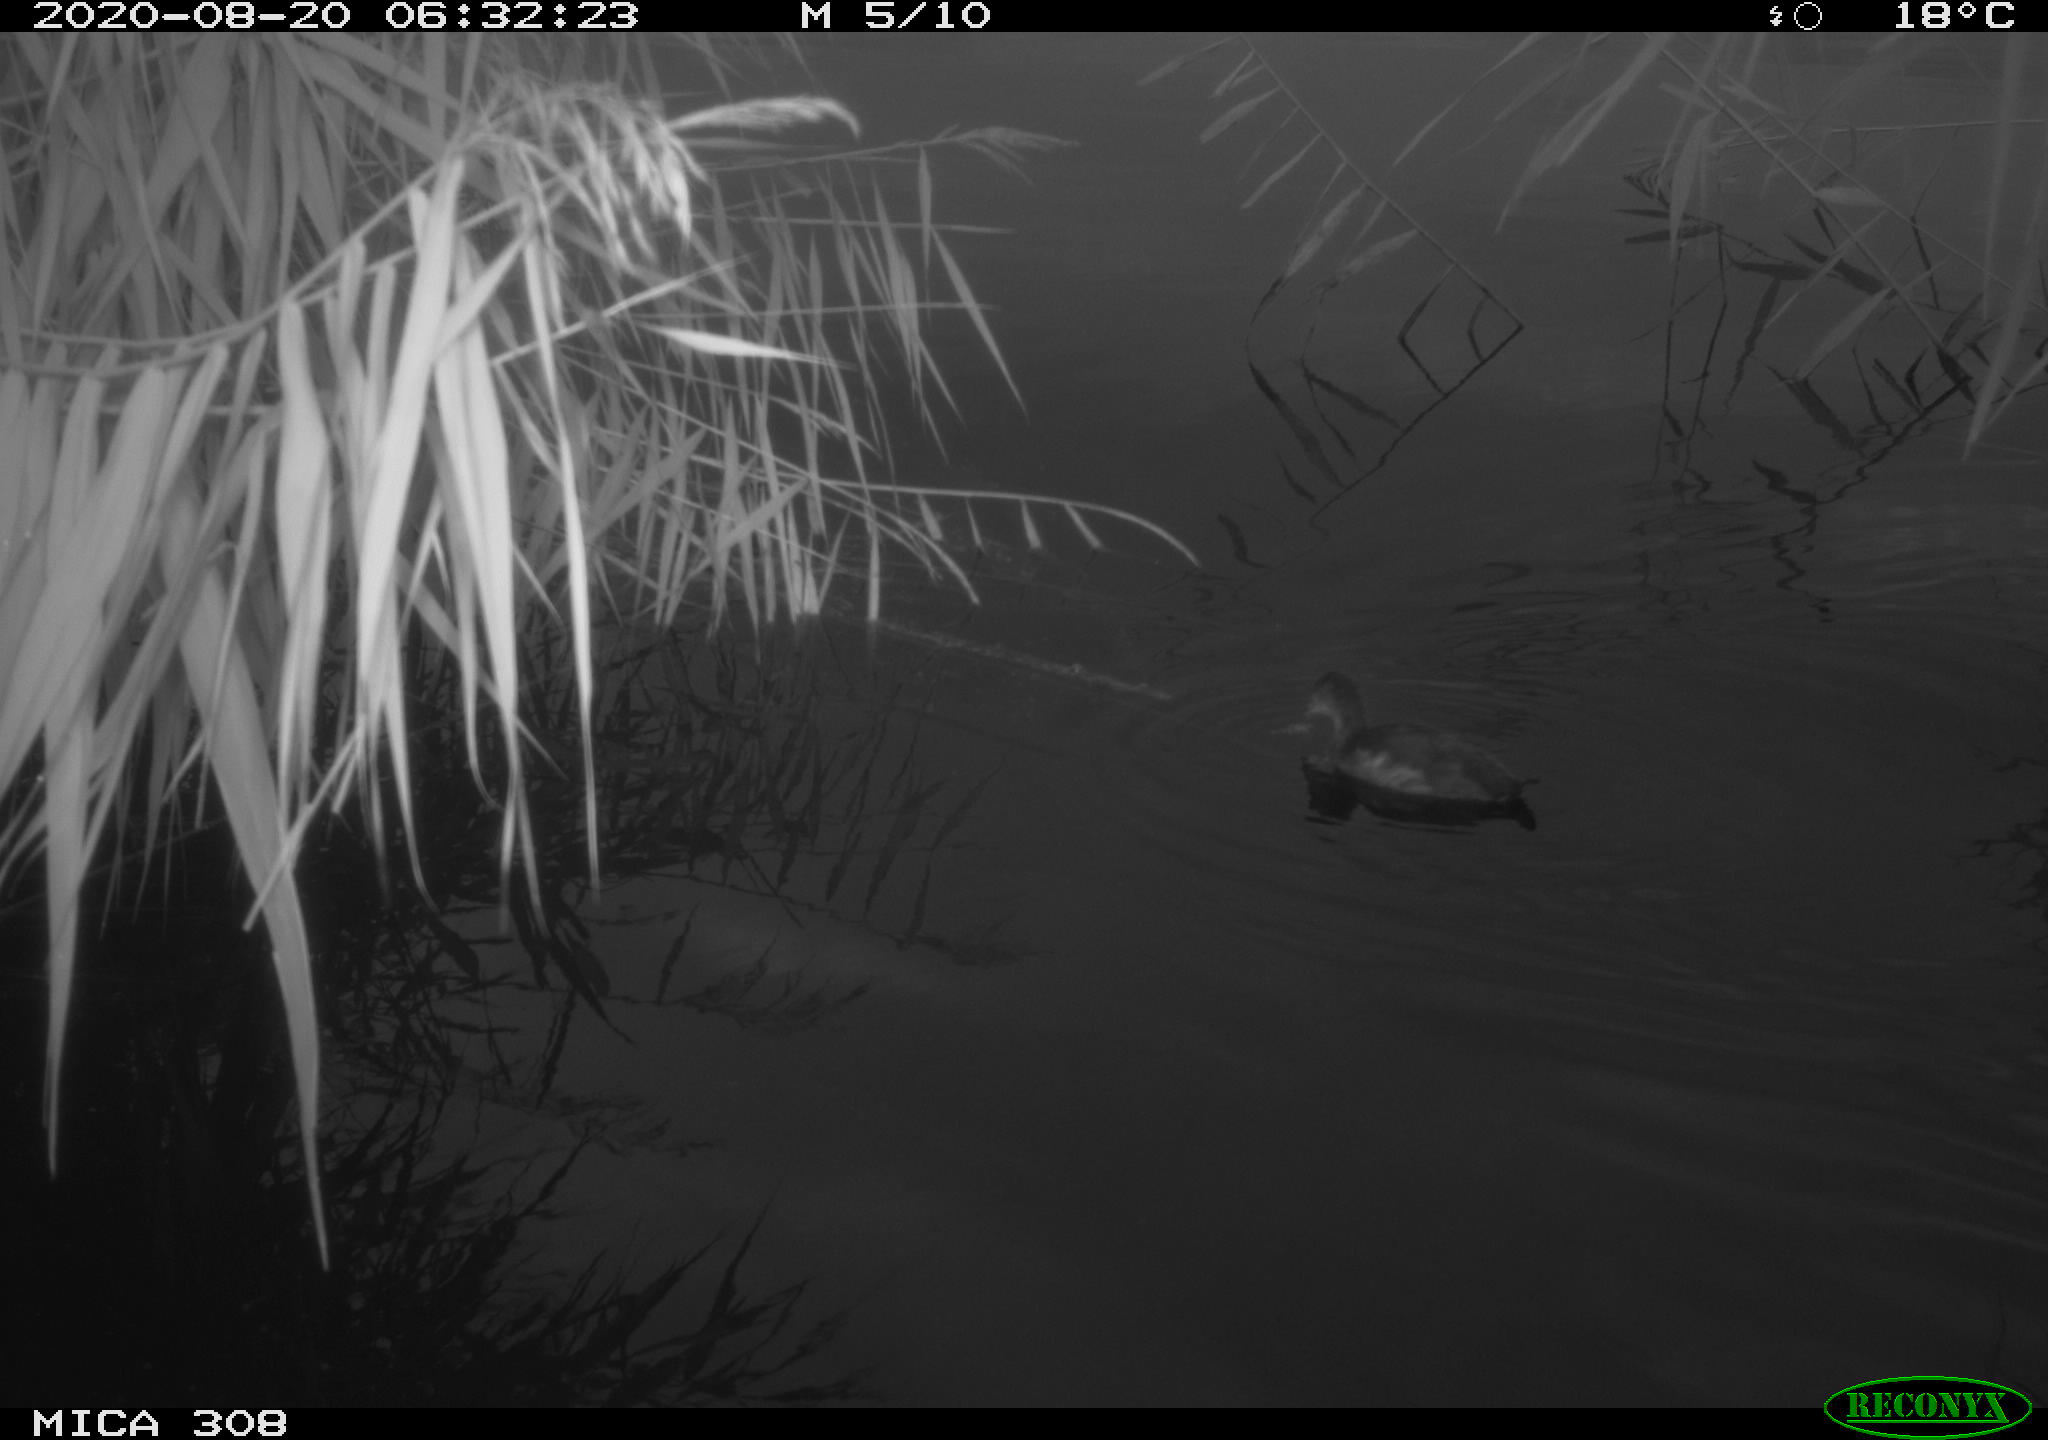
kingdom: Animalia
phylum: Chordata
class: Aves
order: Gruiformes
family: Rallidae
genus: Gallinula
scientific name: Gallinula chloropus
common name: Common moorhen
